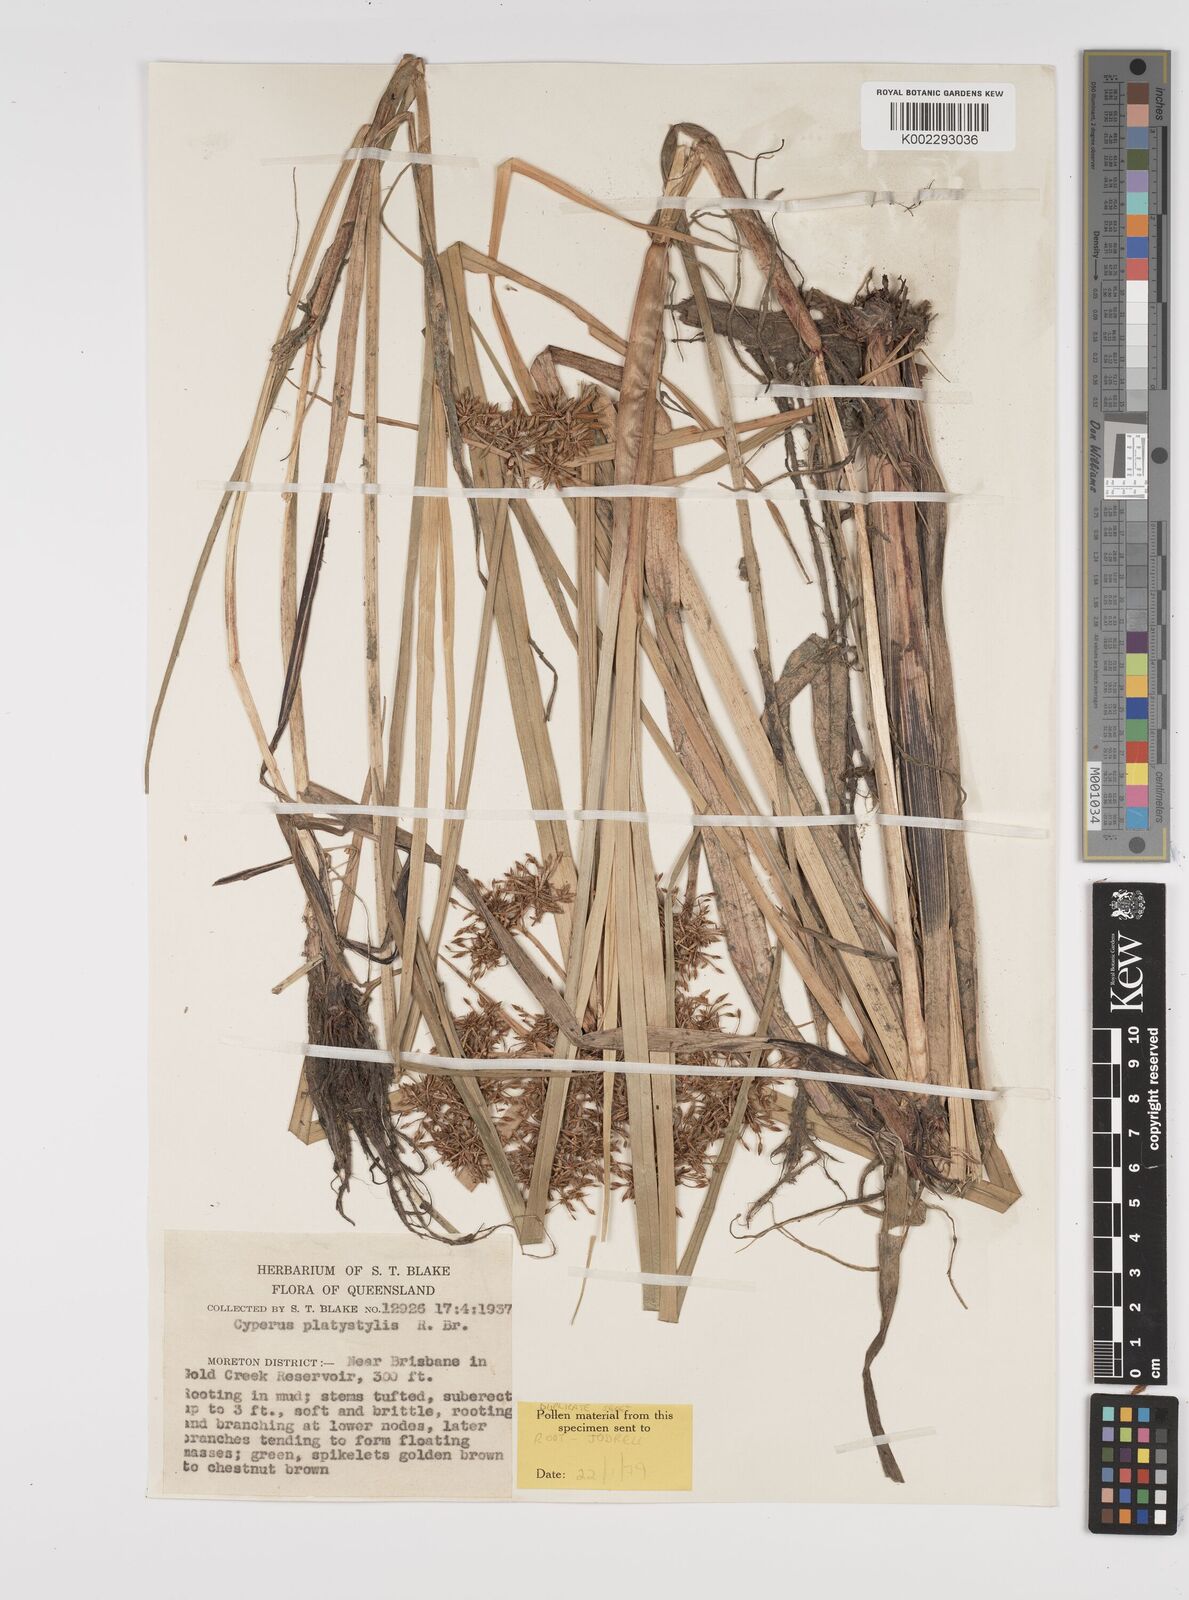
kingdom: Plantae
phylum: Tracheophyta
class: Liliopsida
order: Poales
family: Cyperaceae
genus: Cyperus
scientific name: Cyperus platystylis
